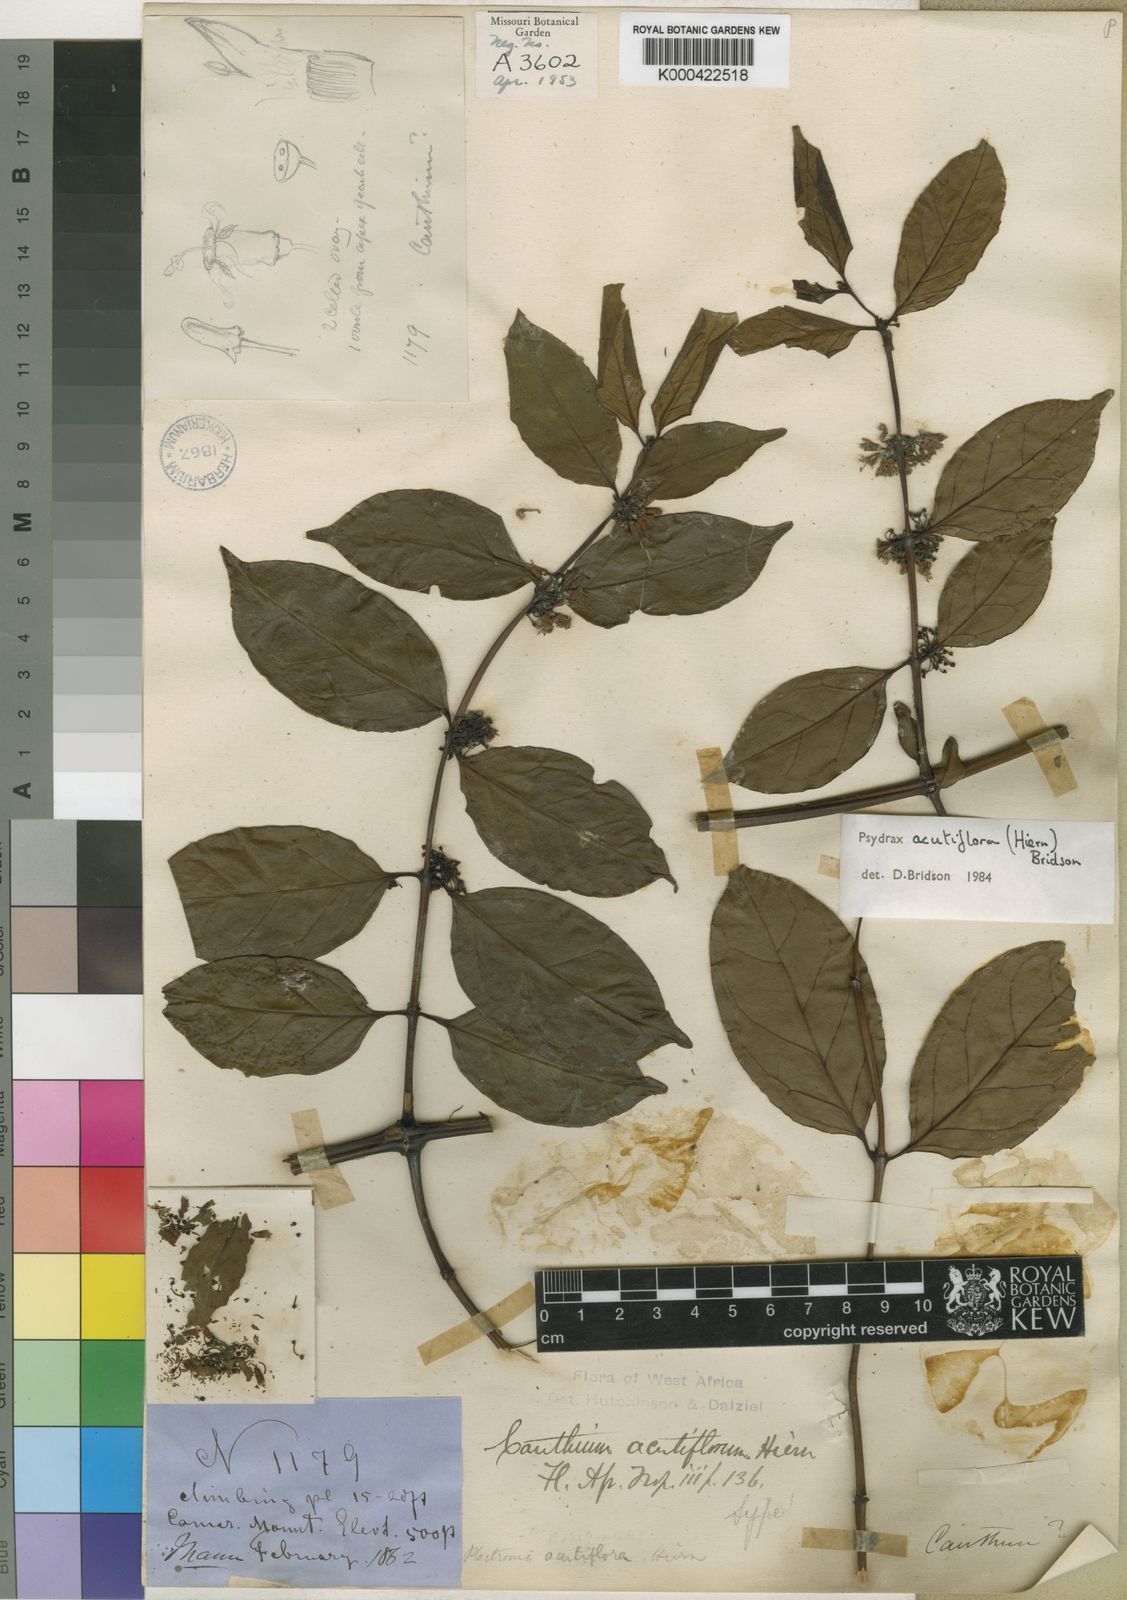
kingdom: Plantae
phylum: Tracheophyta
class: Magnoliopsida
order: Gentianales
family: Rubiaceae
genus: Psydrax
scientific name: Psydrax acutiflorus
